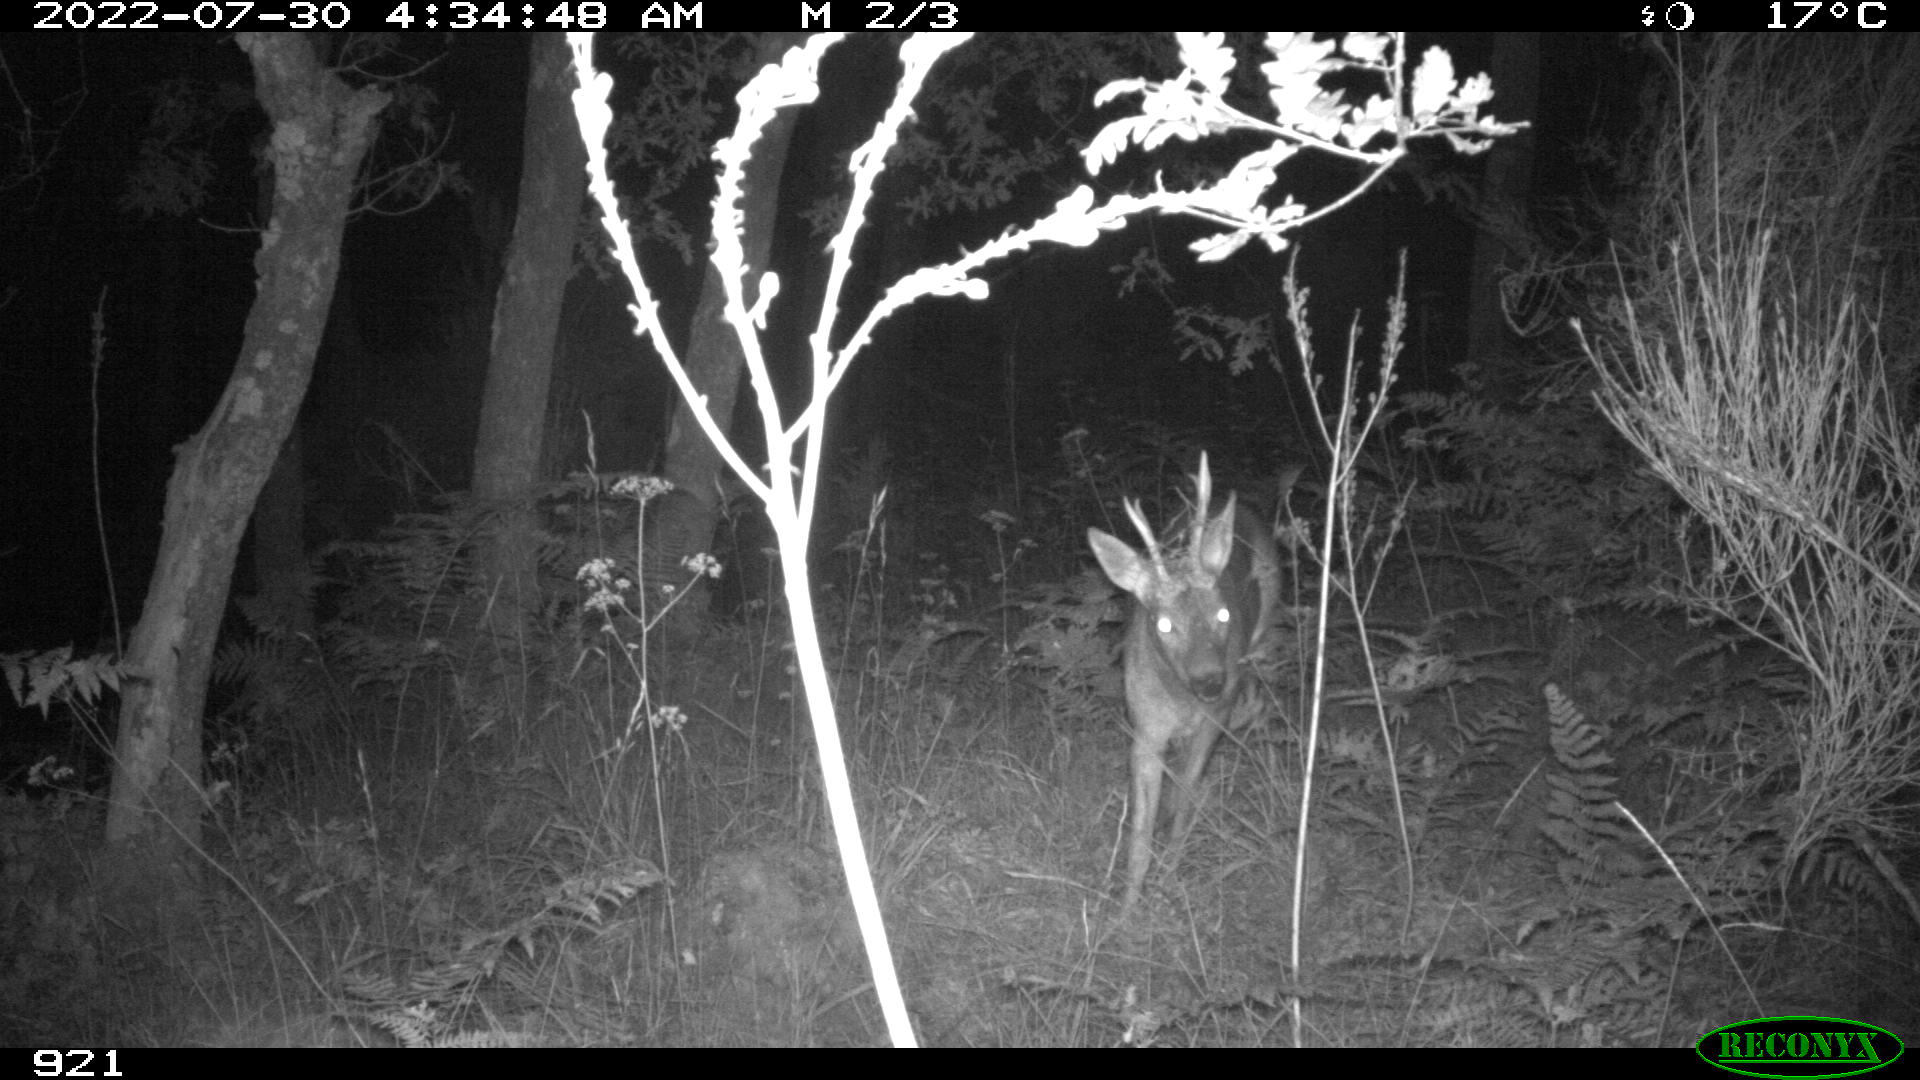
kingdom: Animalia
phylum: Chordata
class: Mammalia
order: Artiodactyla
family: Cervidae
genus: Capreolus
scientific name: Capreolus capreolus
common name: Western roe deer
